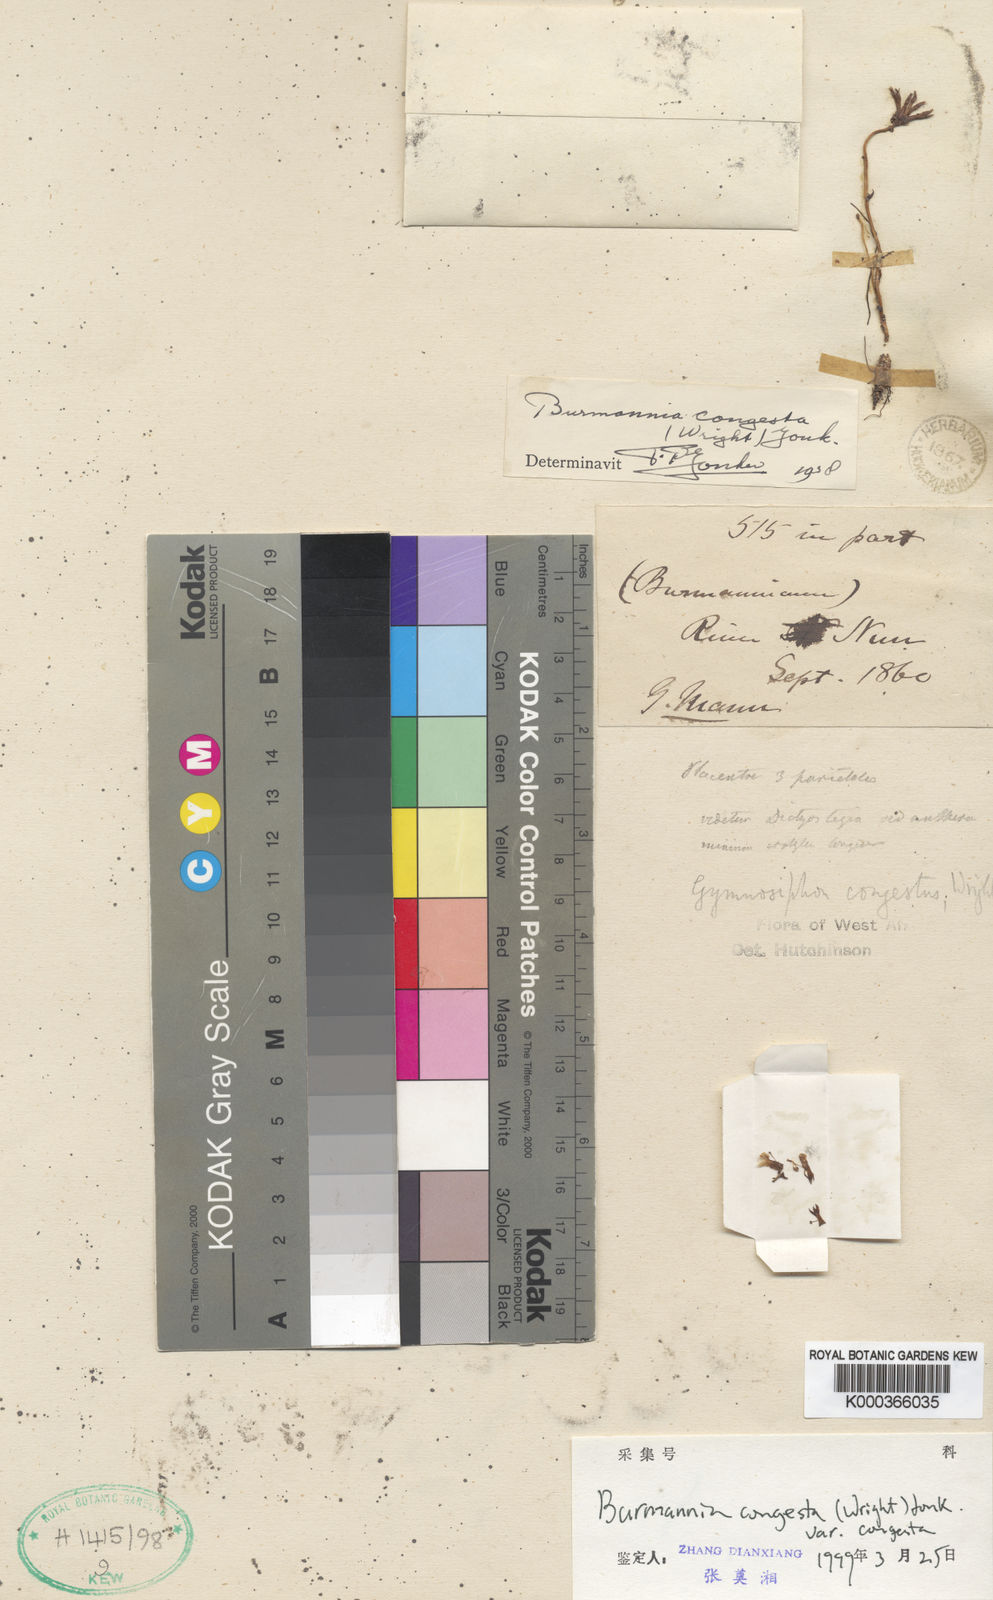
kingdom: Plantae
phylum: Tracheophyta
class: Liliopsida
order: Dioscoreales
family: Burmanniaceae
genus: Campylosiphon
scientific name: Campylosiphon congestus
